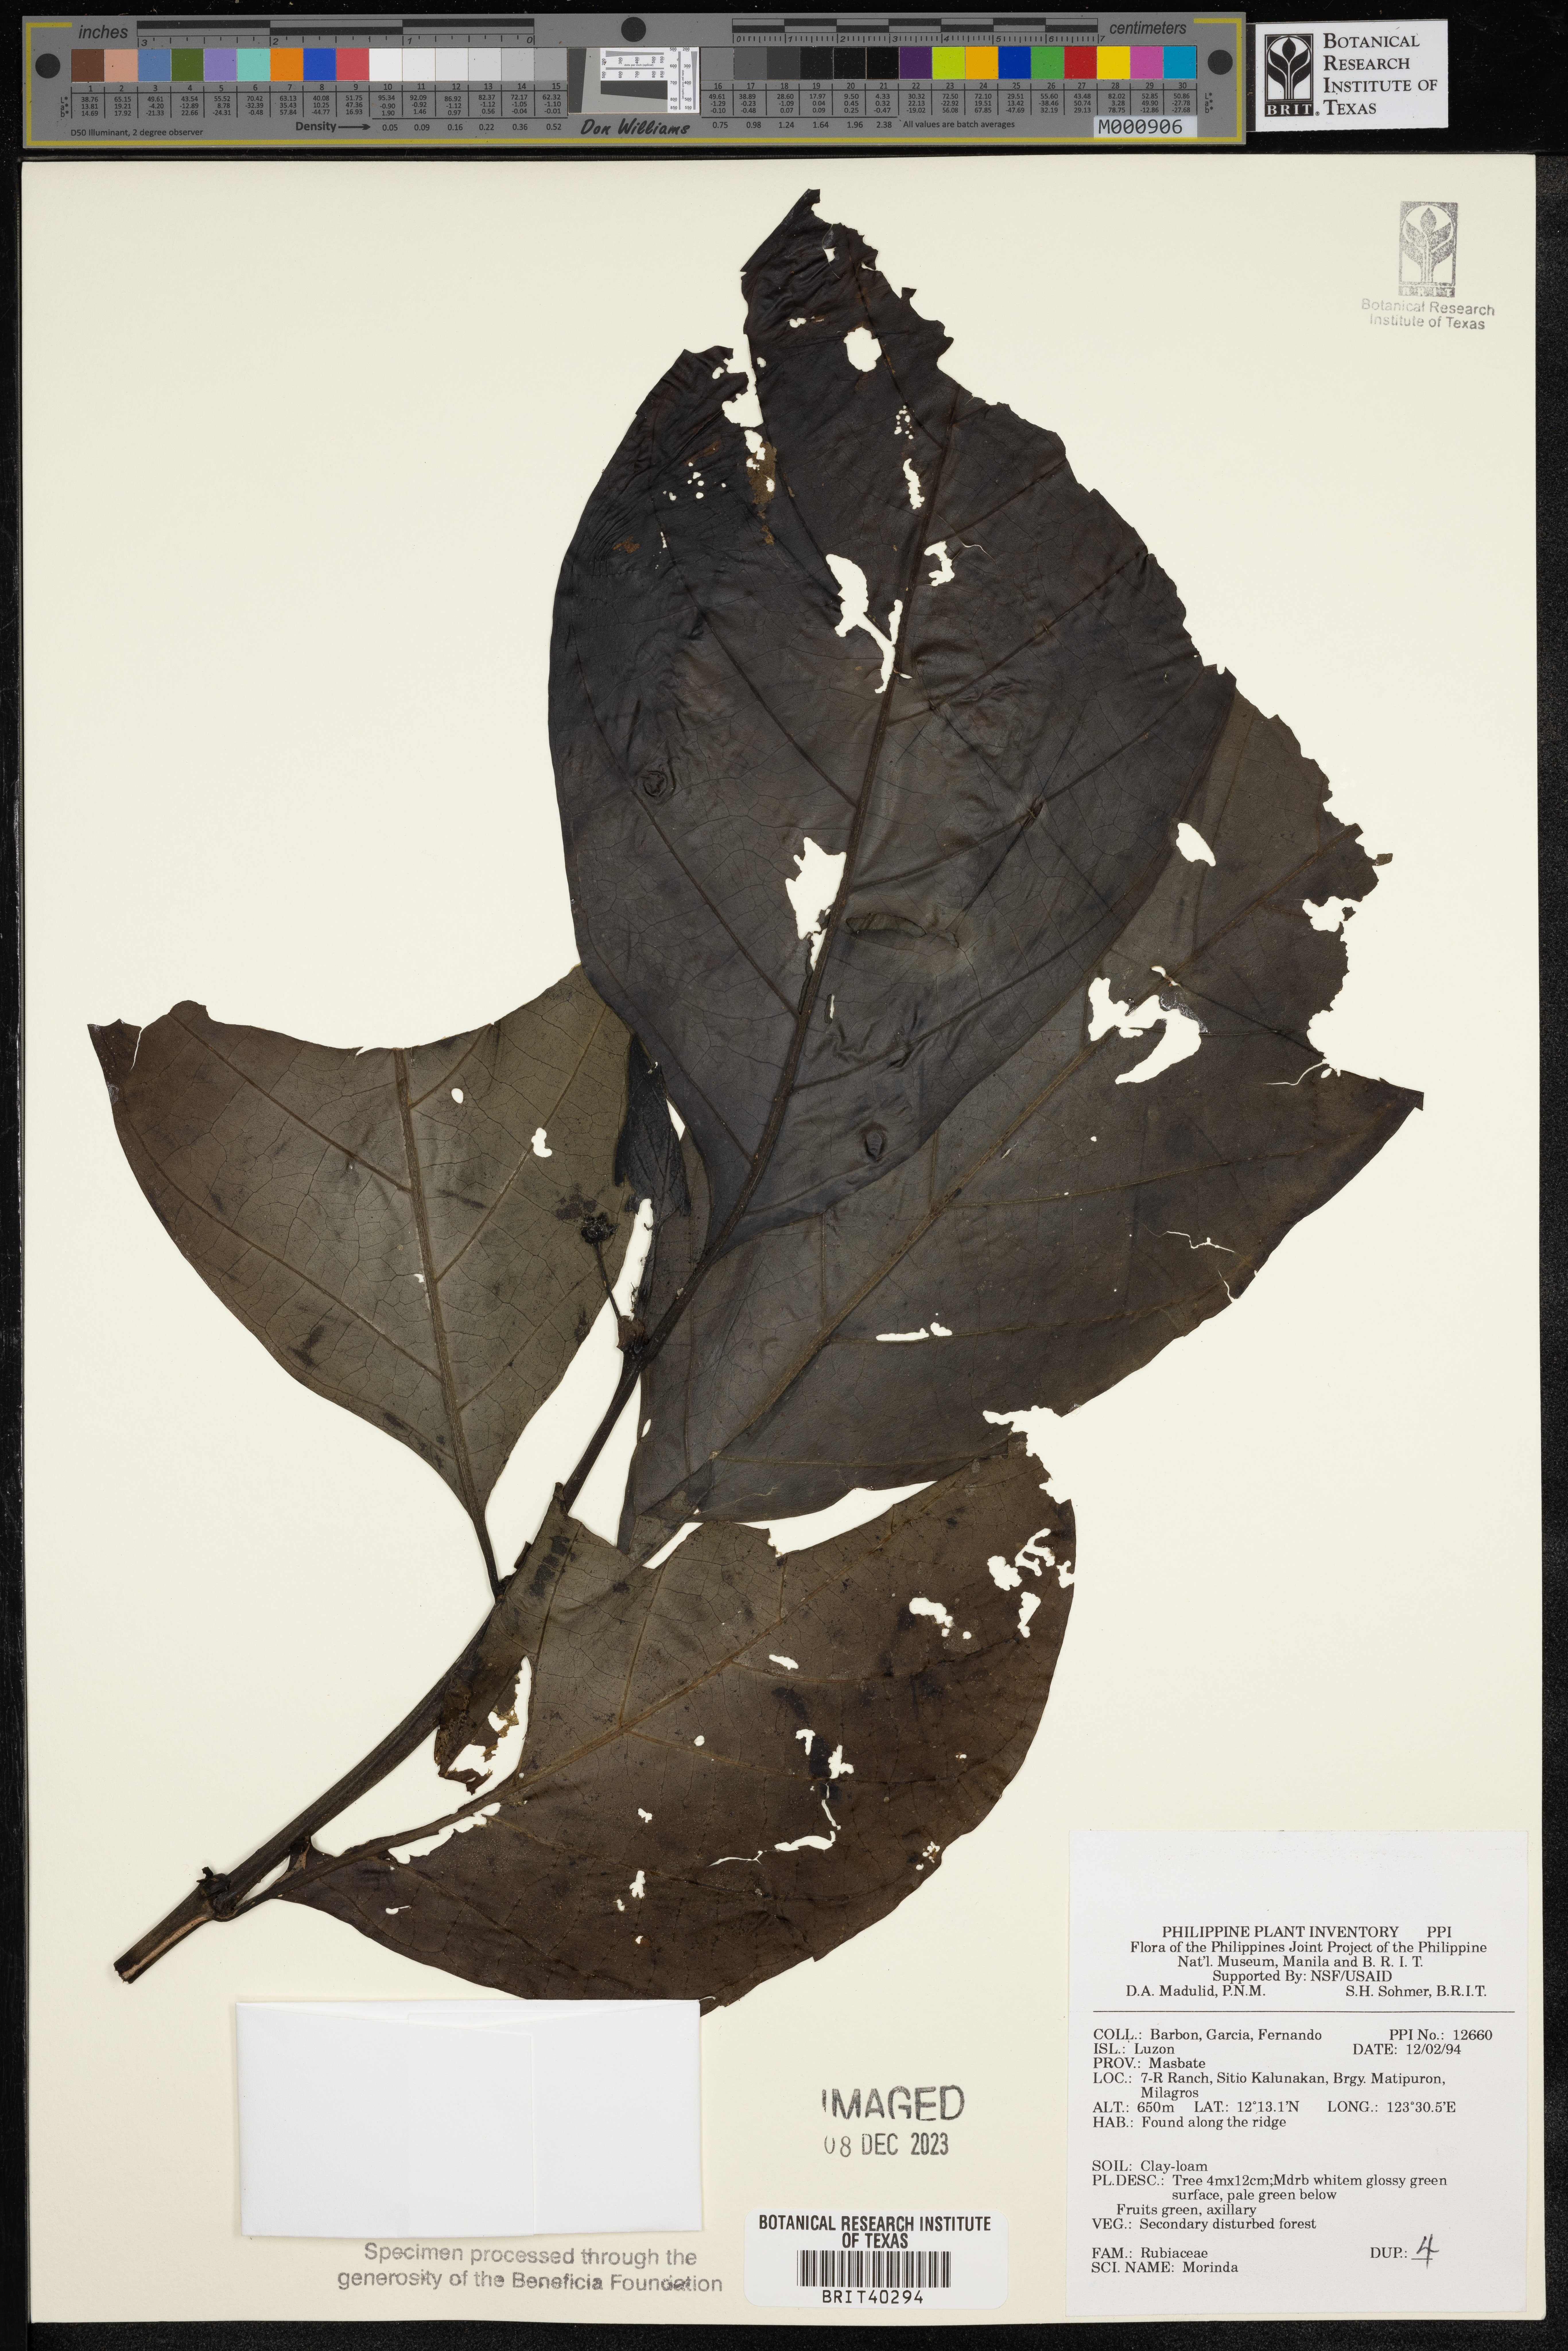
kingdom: Plantae
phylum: Tracheophyta
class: Magnoliopsida
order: Gentianales
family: Rubiaceae
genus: Morinda
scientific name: Morinda
